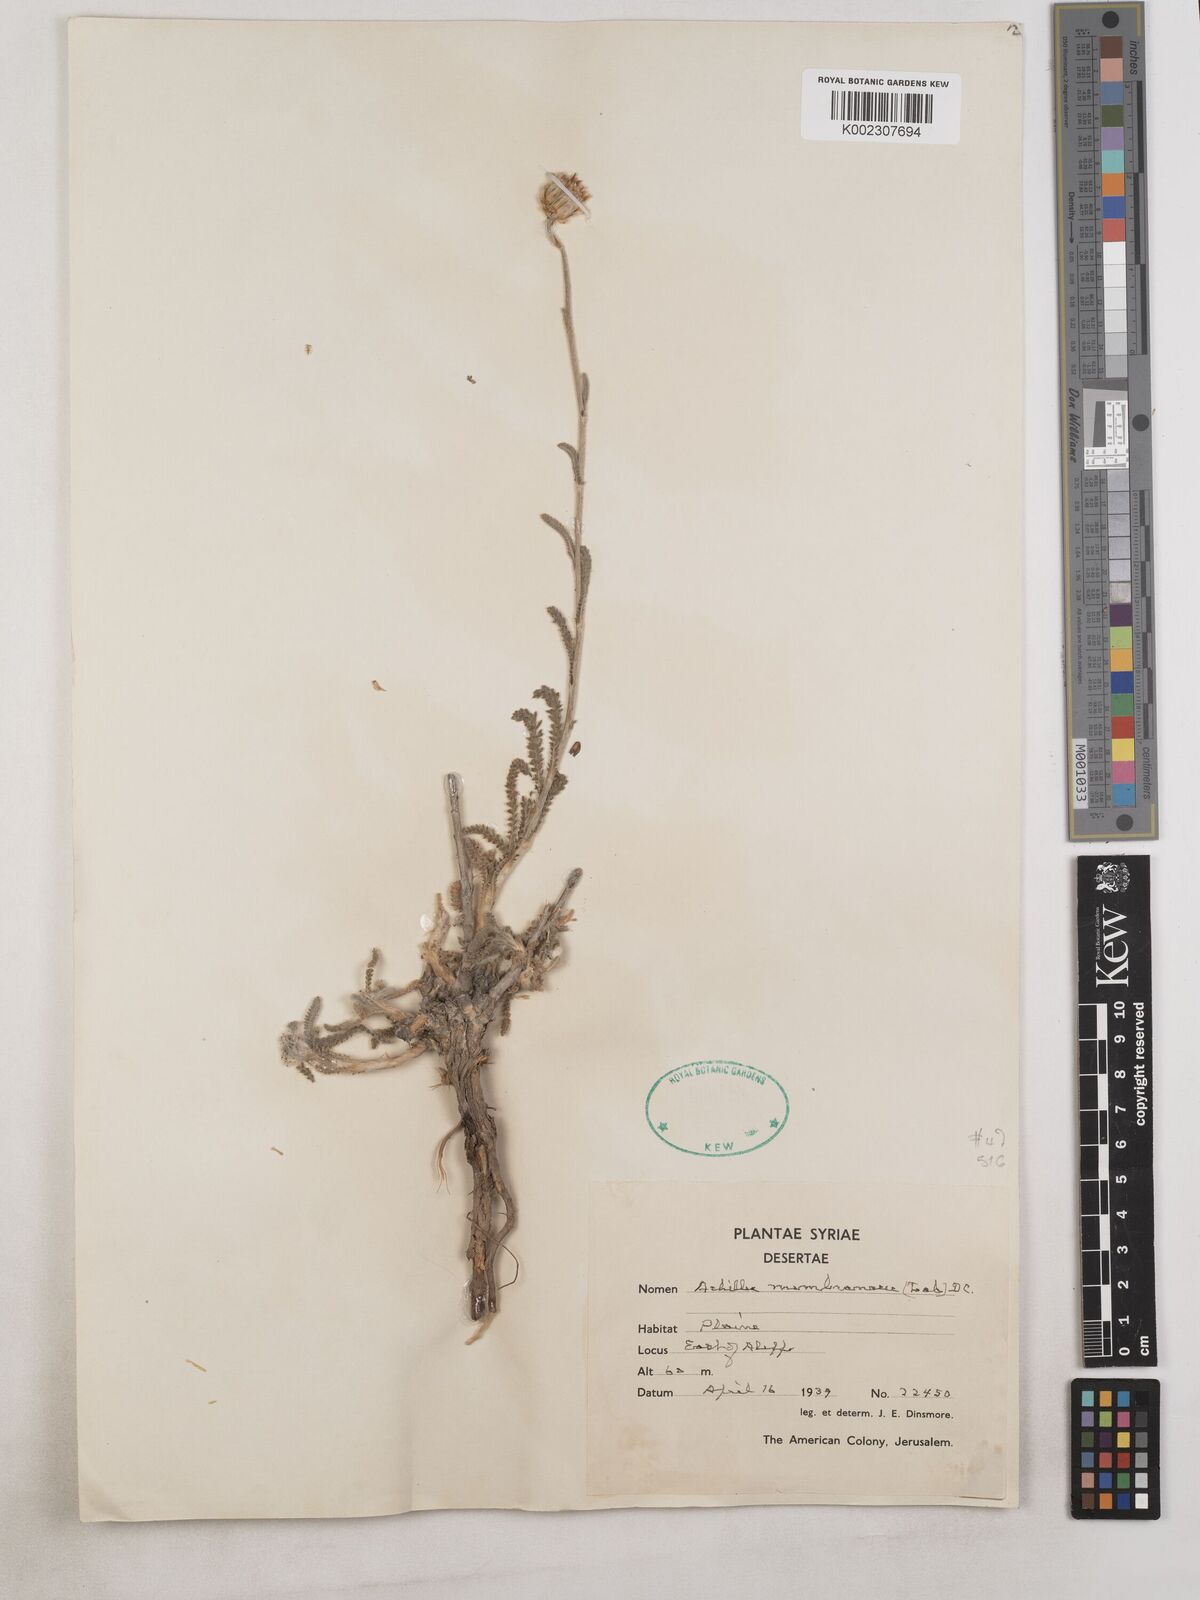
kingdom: Plantae
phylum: Tracheophyta
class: Magnoliopsida
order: Asterales
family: Asteraceae
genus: Achillea
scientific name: Achillea membranacea
